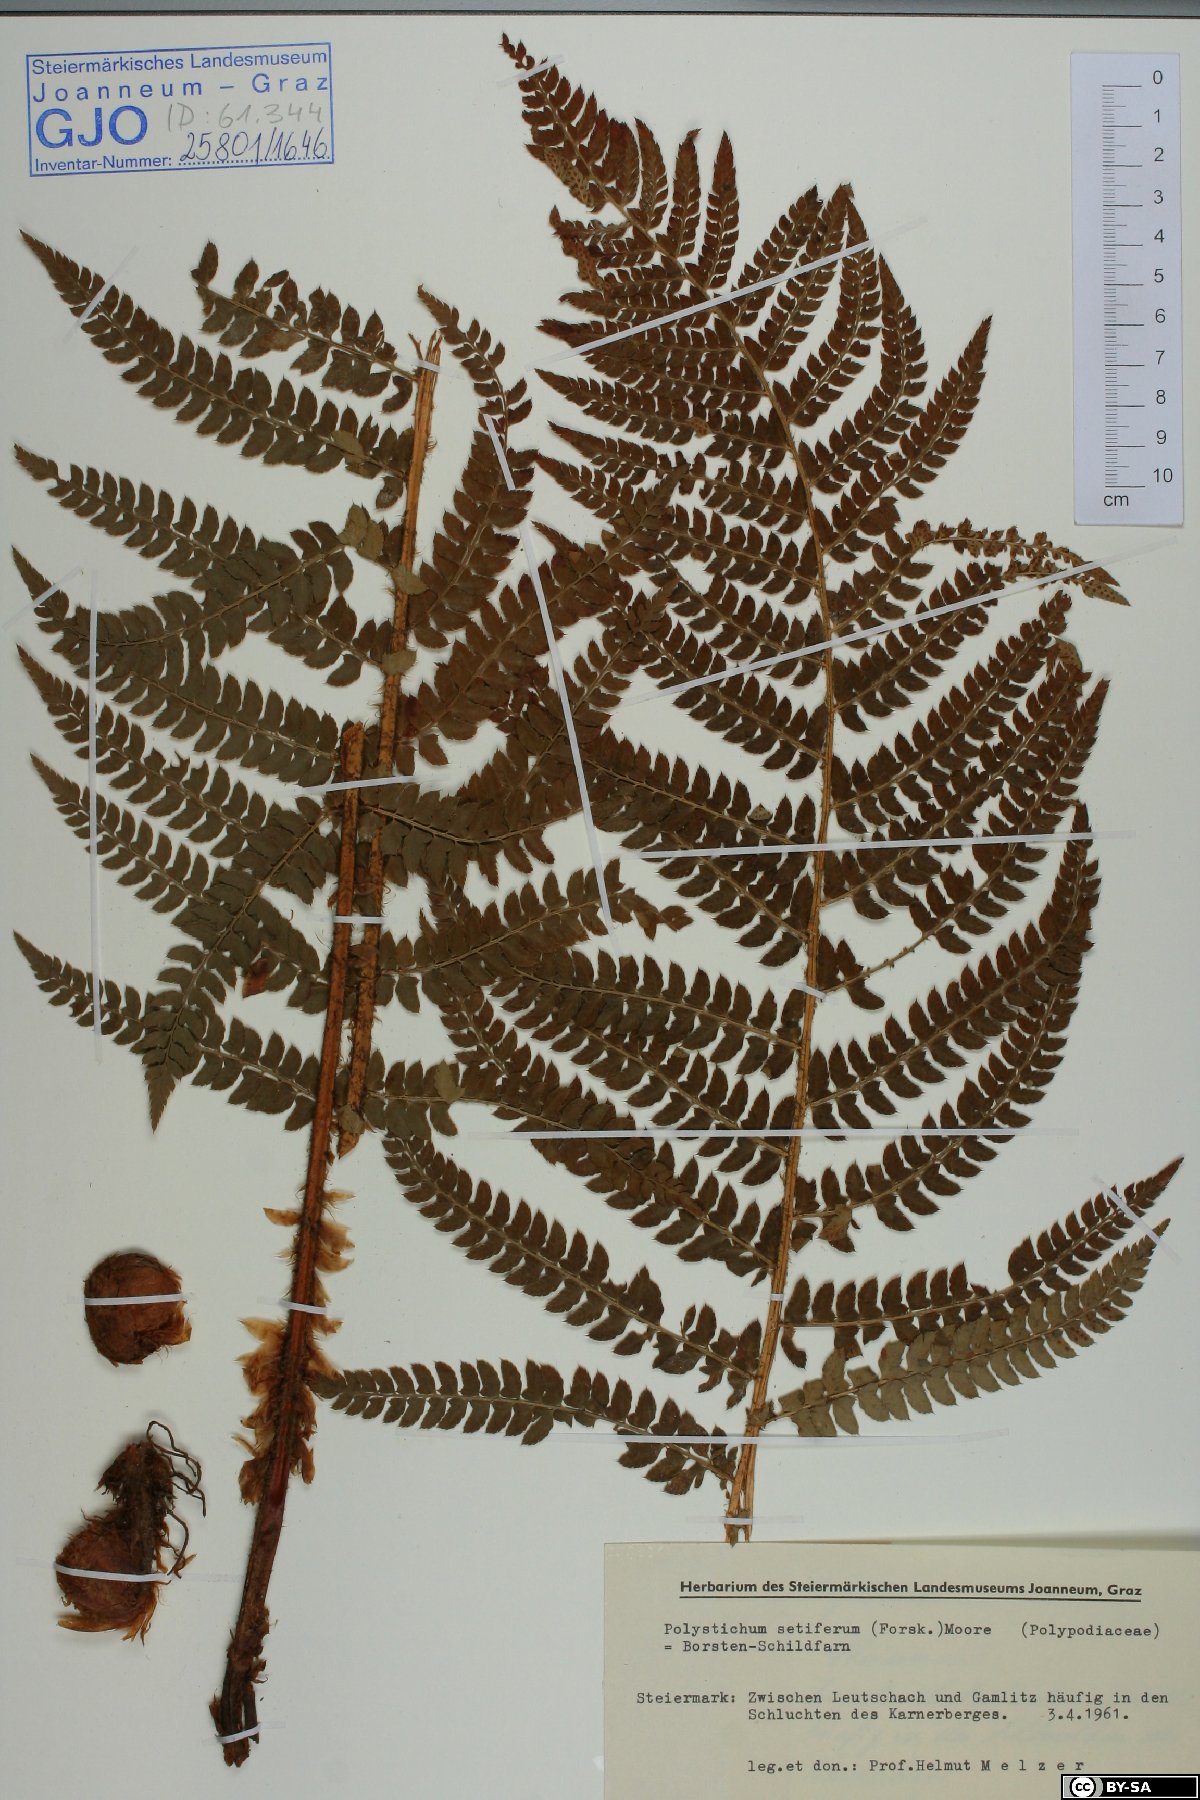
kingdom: Plantae
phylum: Tracheophyta
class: Polypodiopsida
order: Polypodiales
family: Dryopteridaceae
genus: Polystichum
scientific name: Polystichum setiferum
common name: Soft shield-fern
